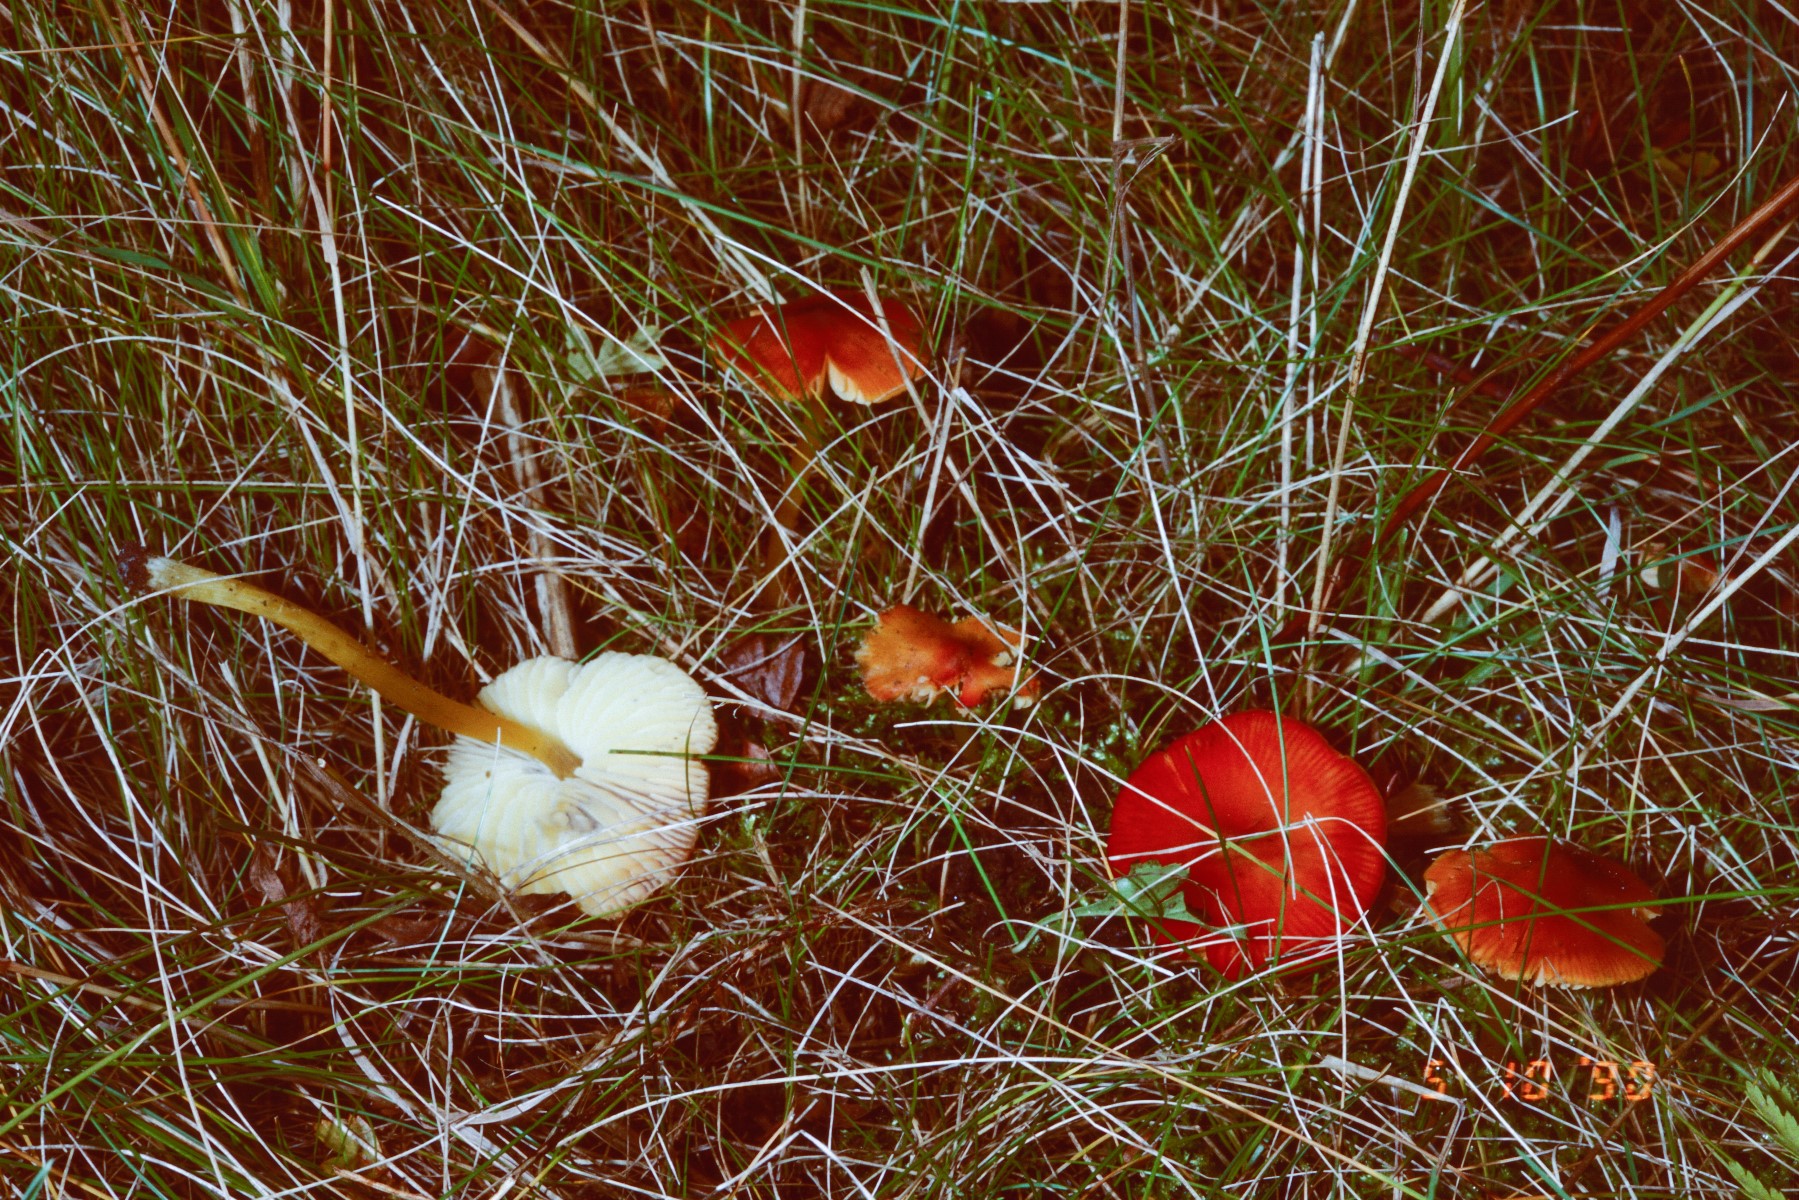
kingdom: Fungi
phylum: Basidiomycota
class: Agaricomycetes
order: Agaricales
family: Hygrophoraceae
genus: Hygrocybe
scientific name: Hygrocybe conica
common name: kegle-vokshat
